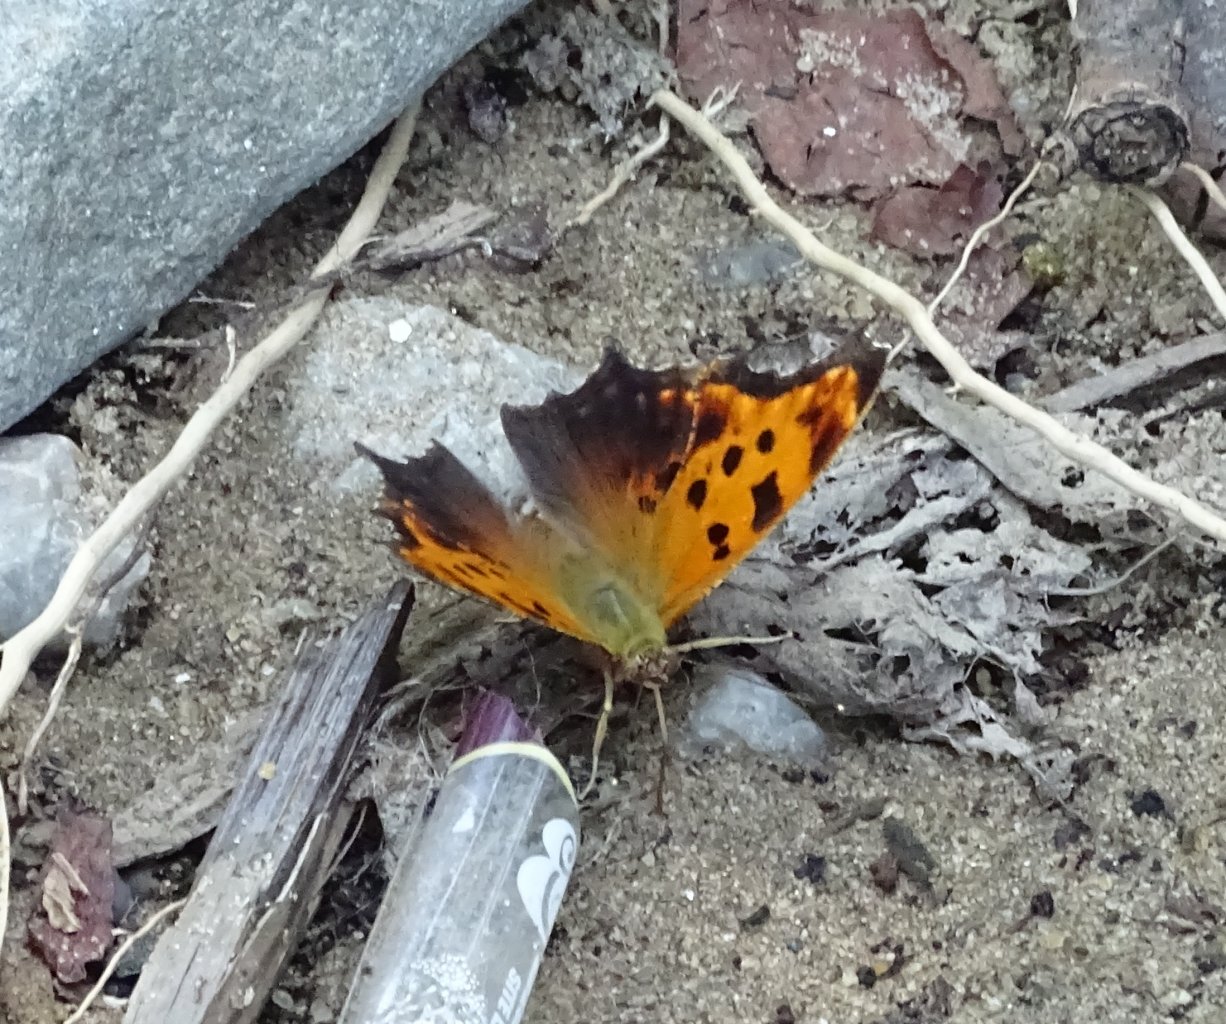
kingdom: Animalia
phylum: Arthropoda
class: Insecta
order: Lepidoptera
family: Nymphalidae
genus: Polygonia
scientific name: Polygonia comma
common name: Eastern Comma
